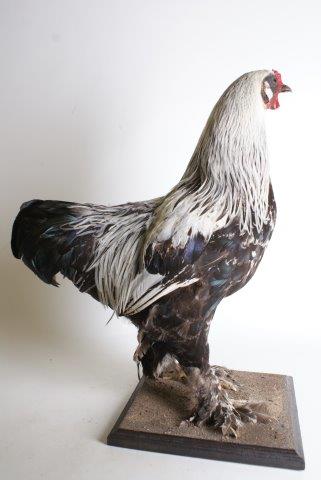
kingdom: Animalia
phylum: Chordata
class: Aves
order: Galliformes
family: Phasianidae
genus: Gallus
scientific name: Gallus gallus
